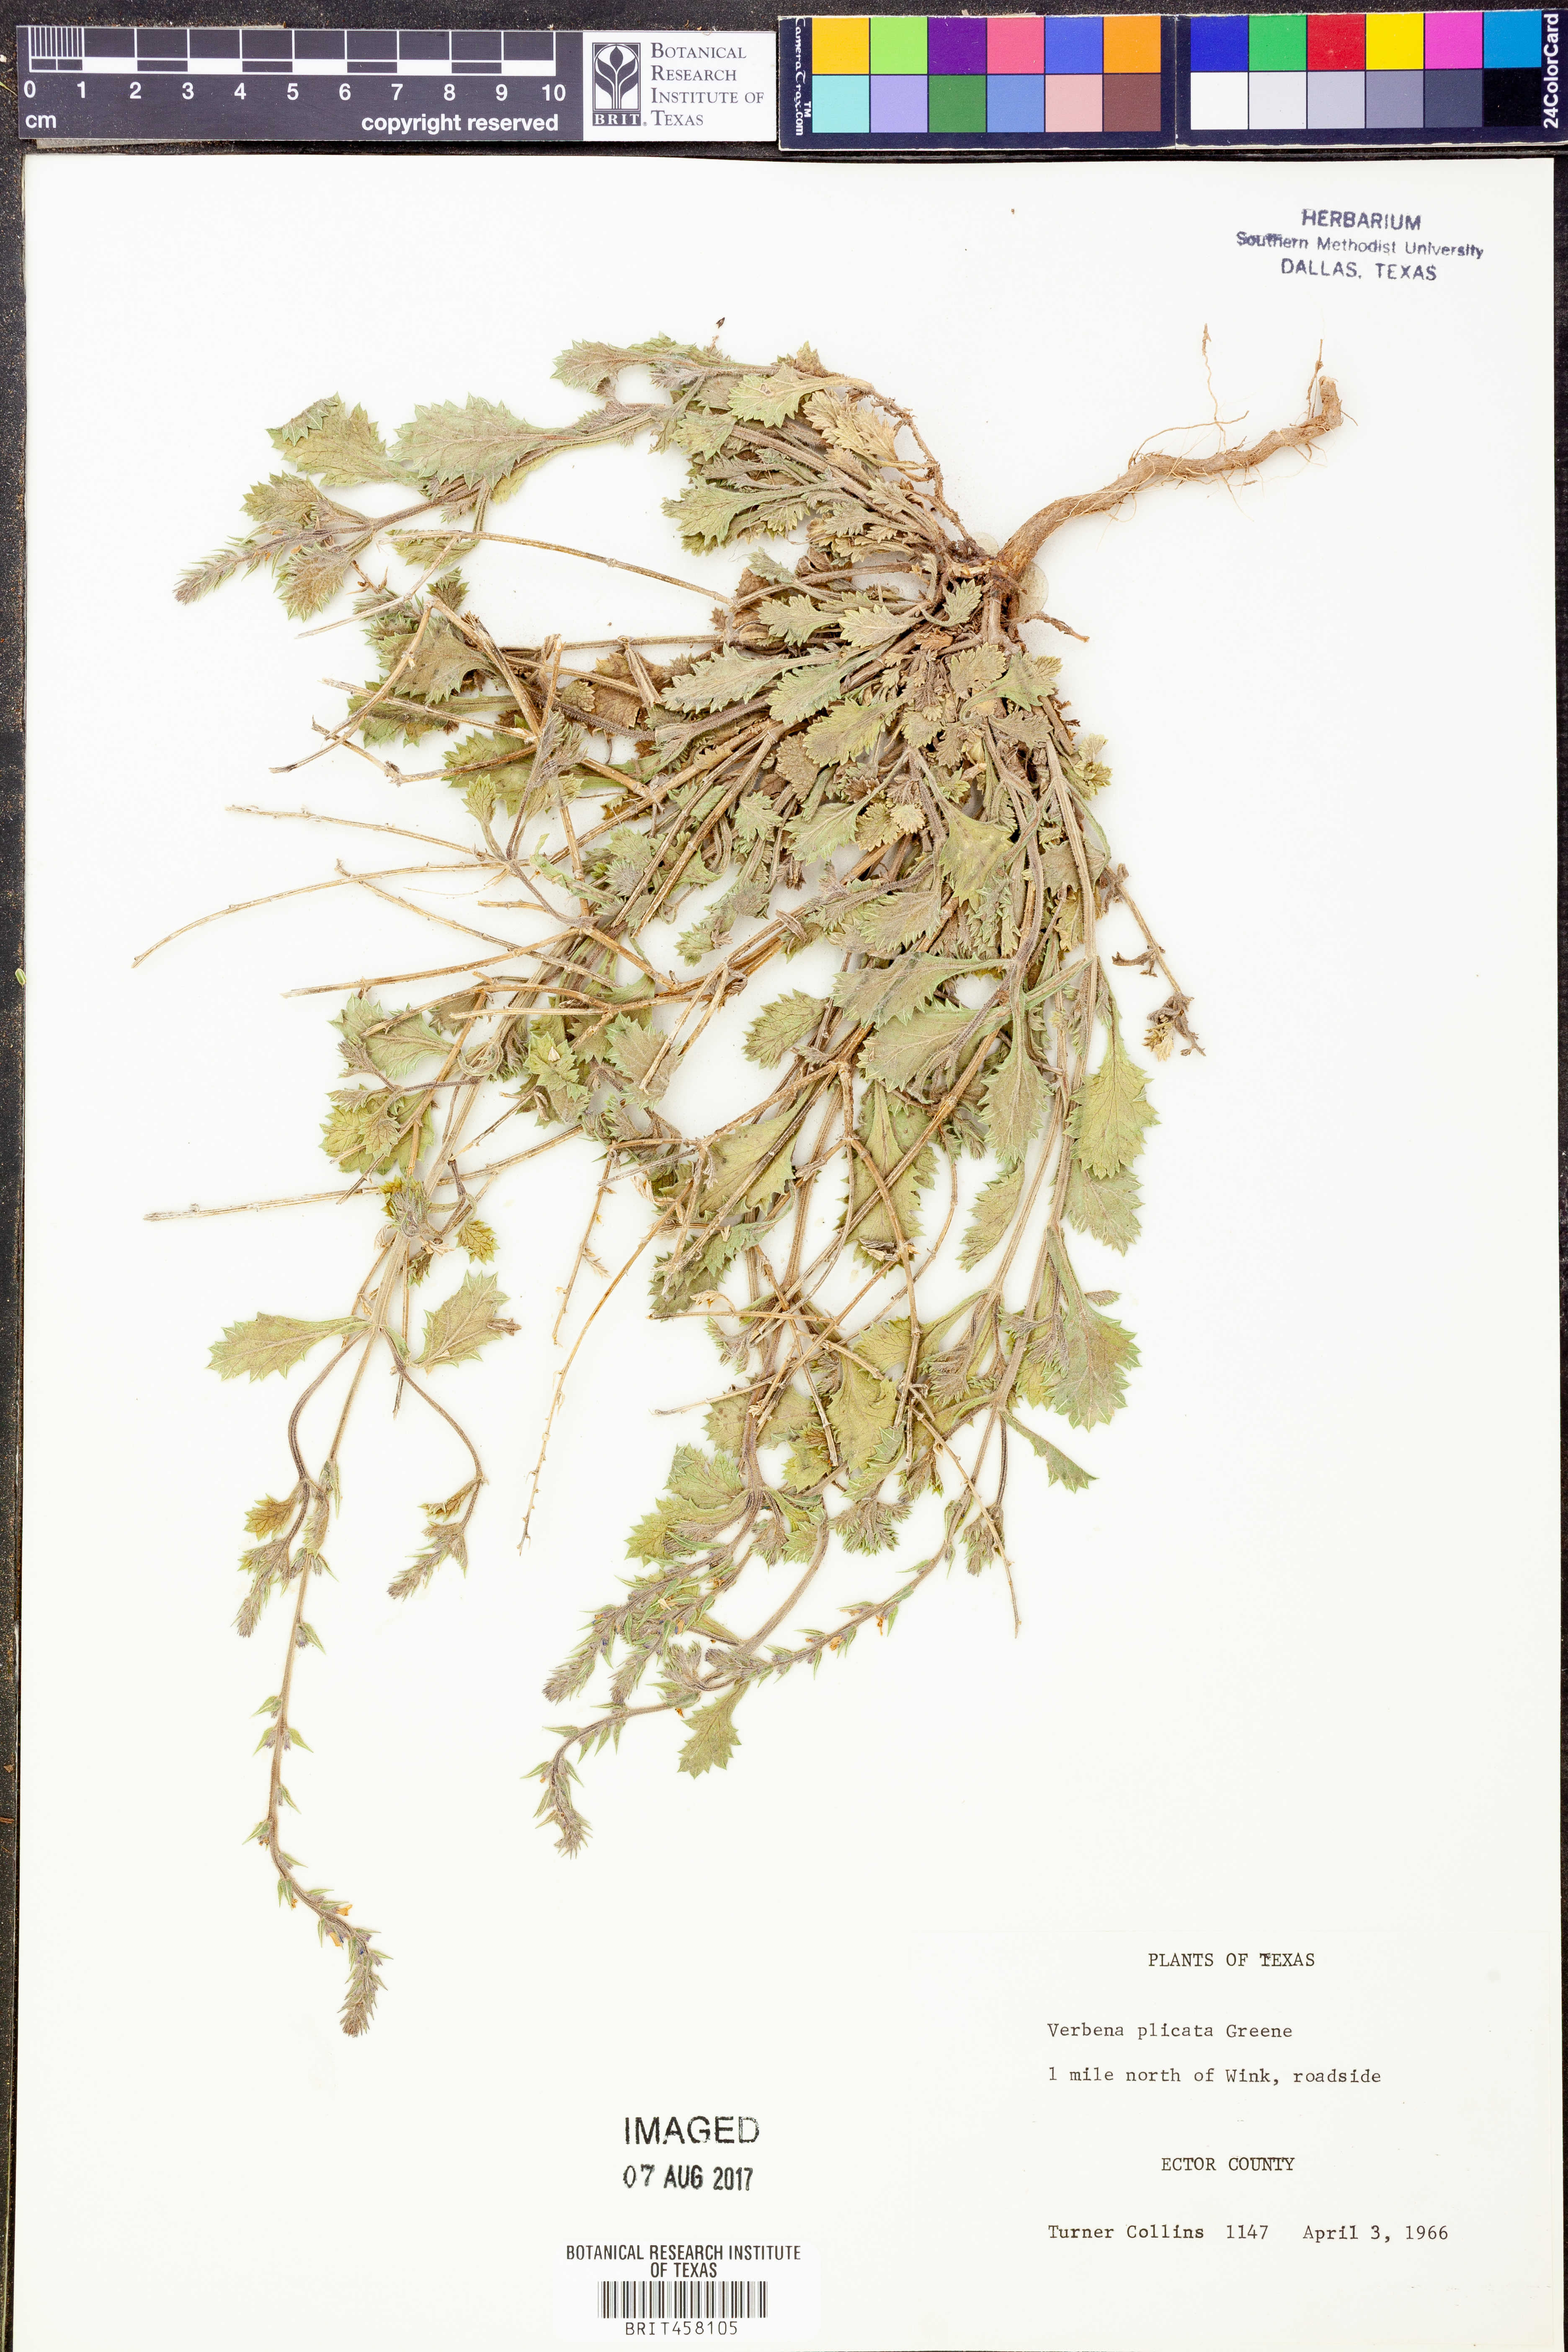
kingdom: Plantae
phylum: Tracheophyta
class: Magnoliopsida
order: Lamiales
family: Verbenaceae
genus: Verbena
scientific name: Verbena plicata
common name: Fan-leaf vervain
